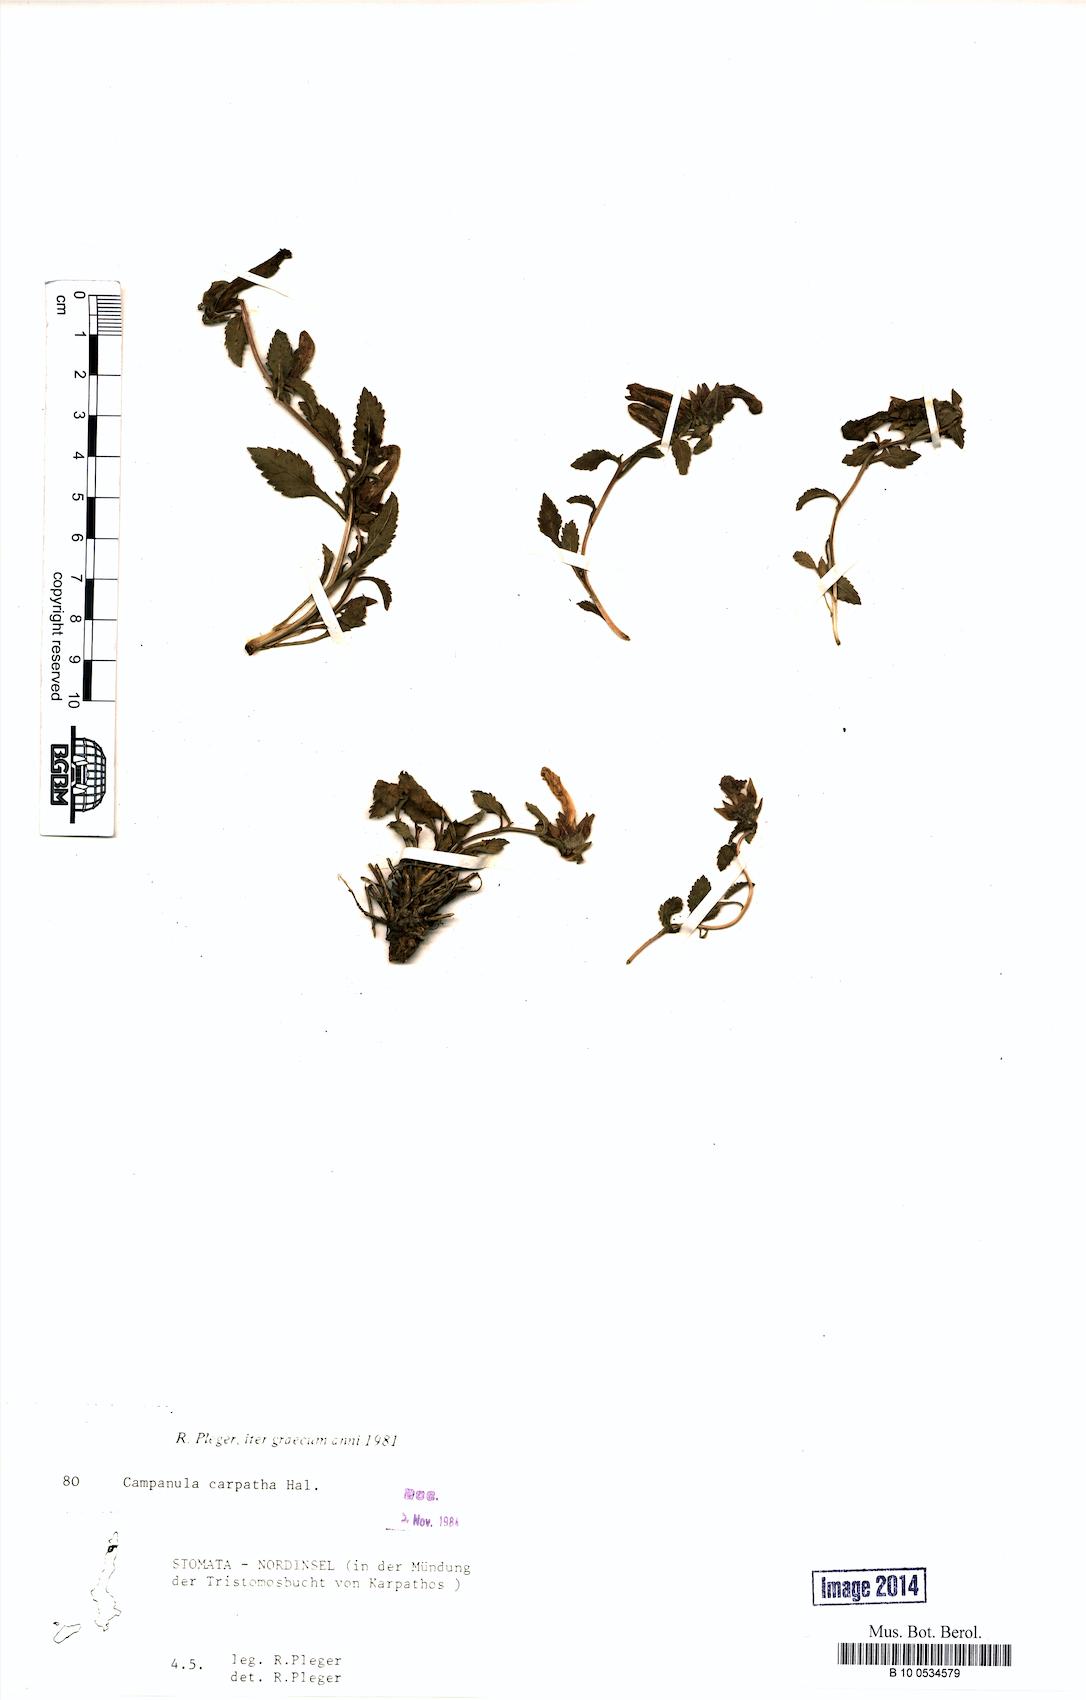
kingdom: Plantae
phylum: Tracheophyta
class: Magnoliopsida
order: Asterales
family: Campanulaceae
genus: Campanula
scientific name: Campanula carpatha
